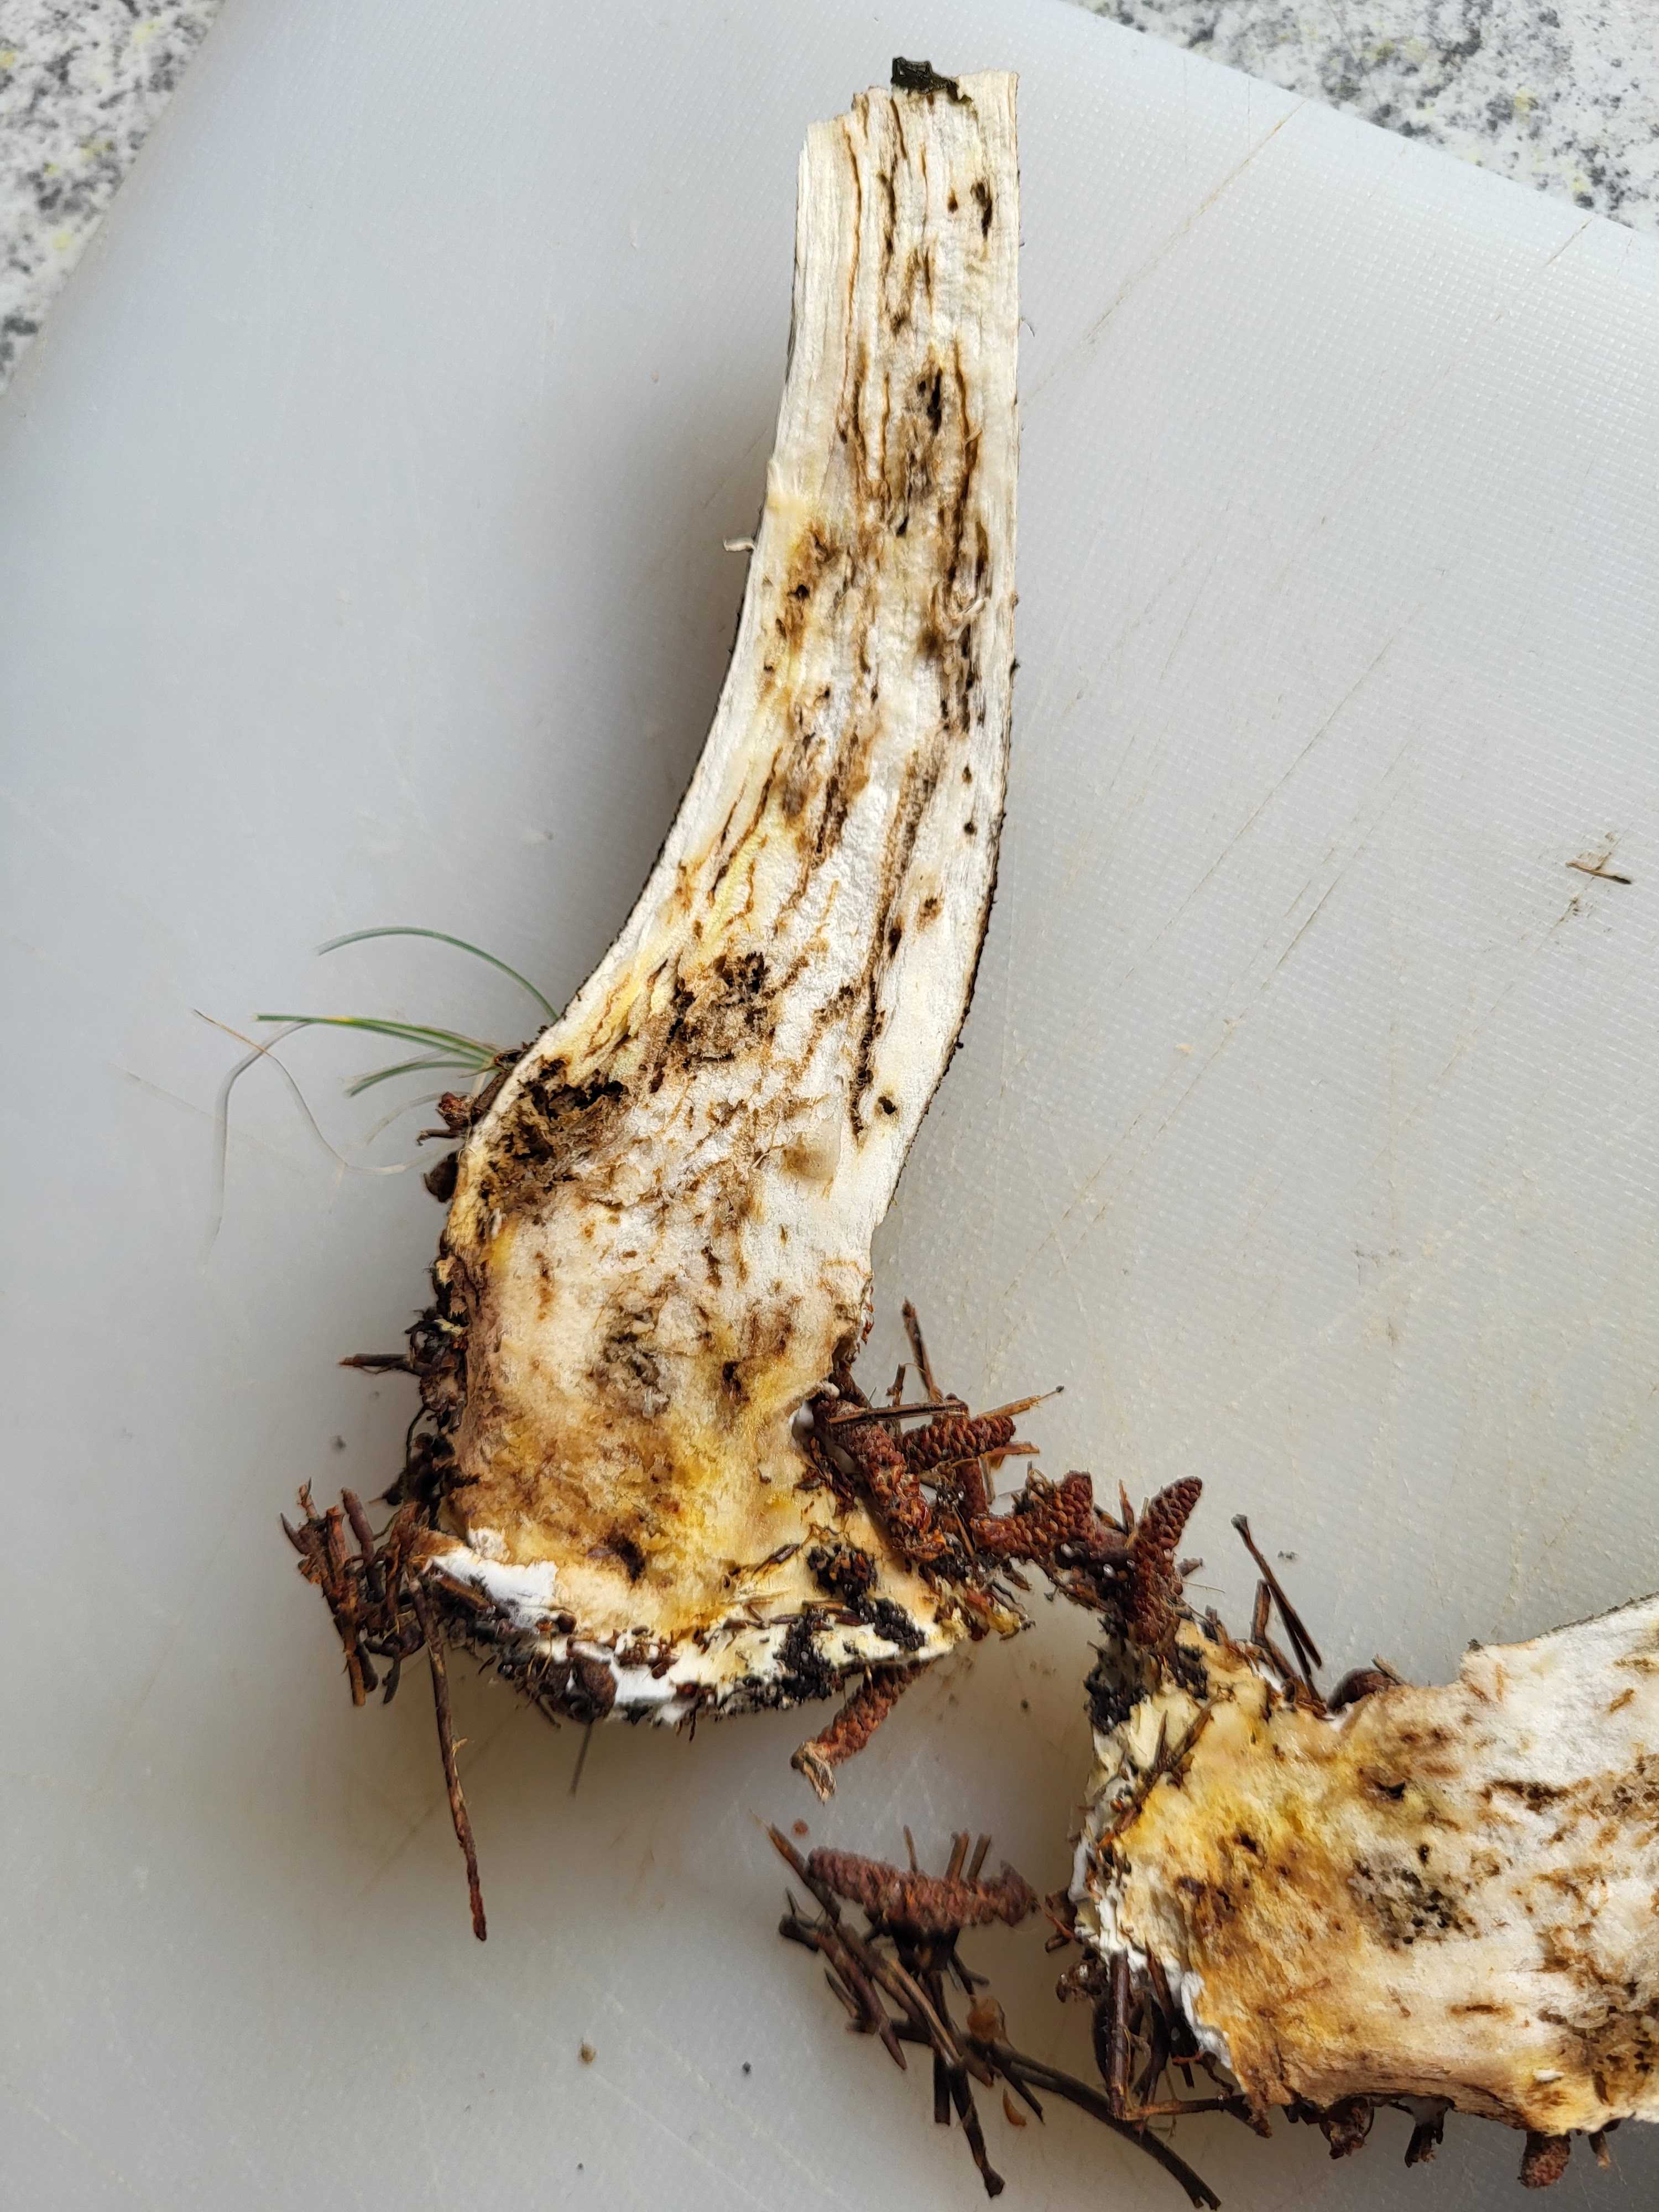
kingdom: Fungi
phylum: Basidiomycota
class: Agaricomycetes
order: Boletales
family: Boletaceae
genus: Leccinum
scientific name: Leccinum scabrum
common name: brun skælrørhat
